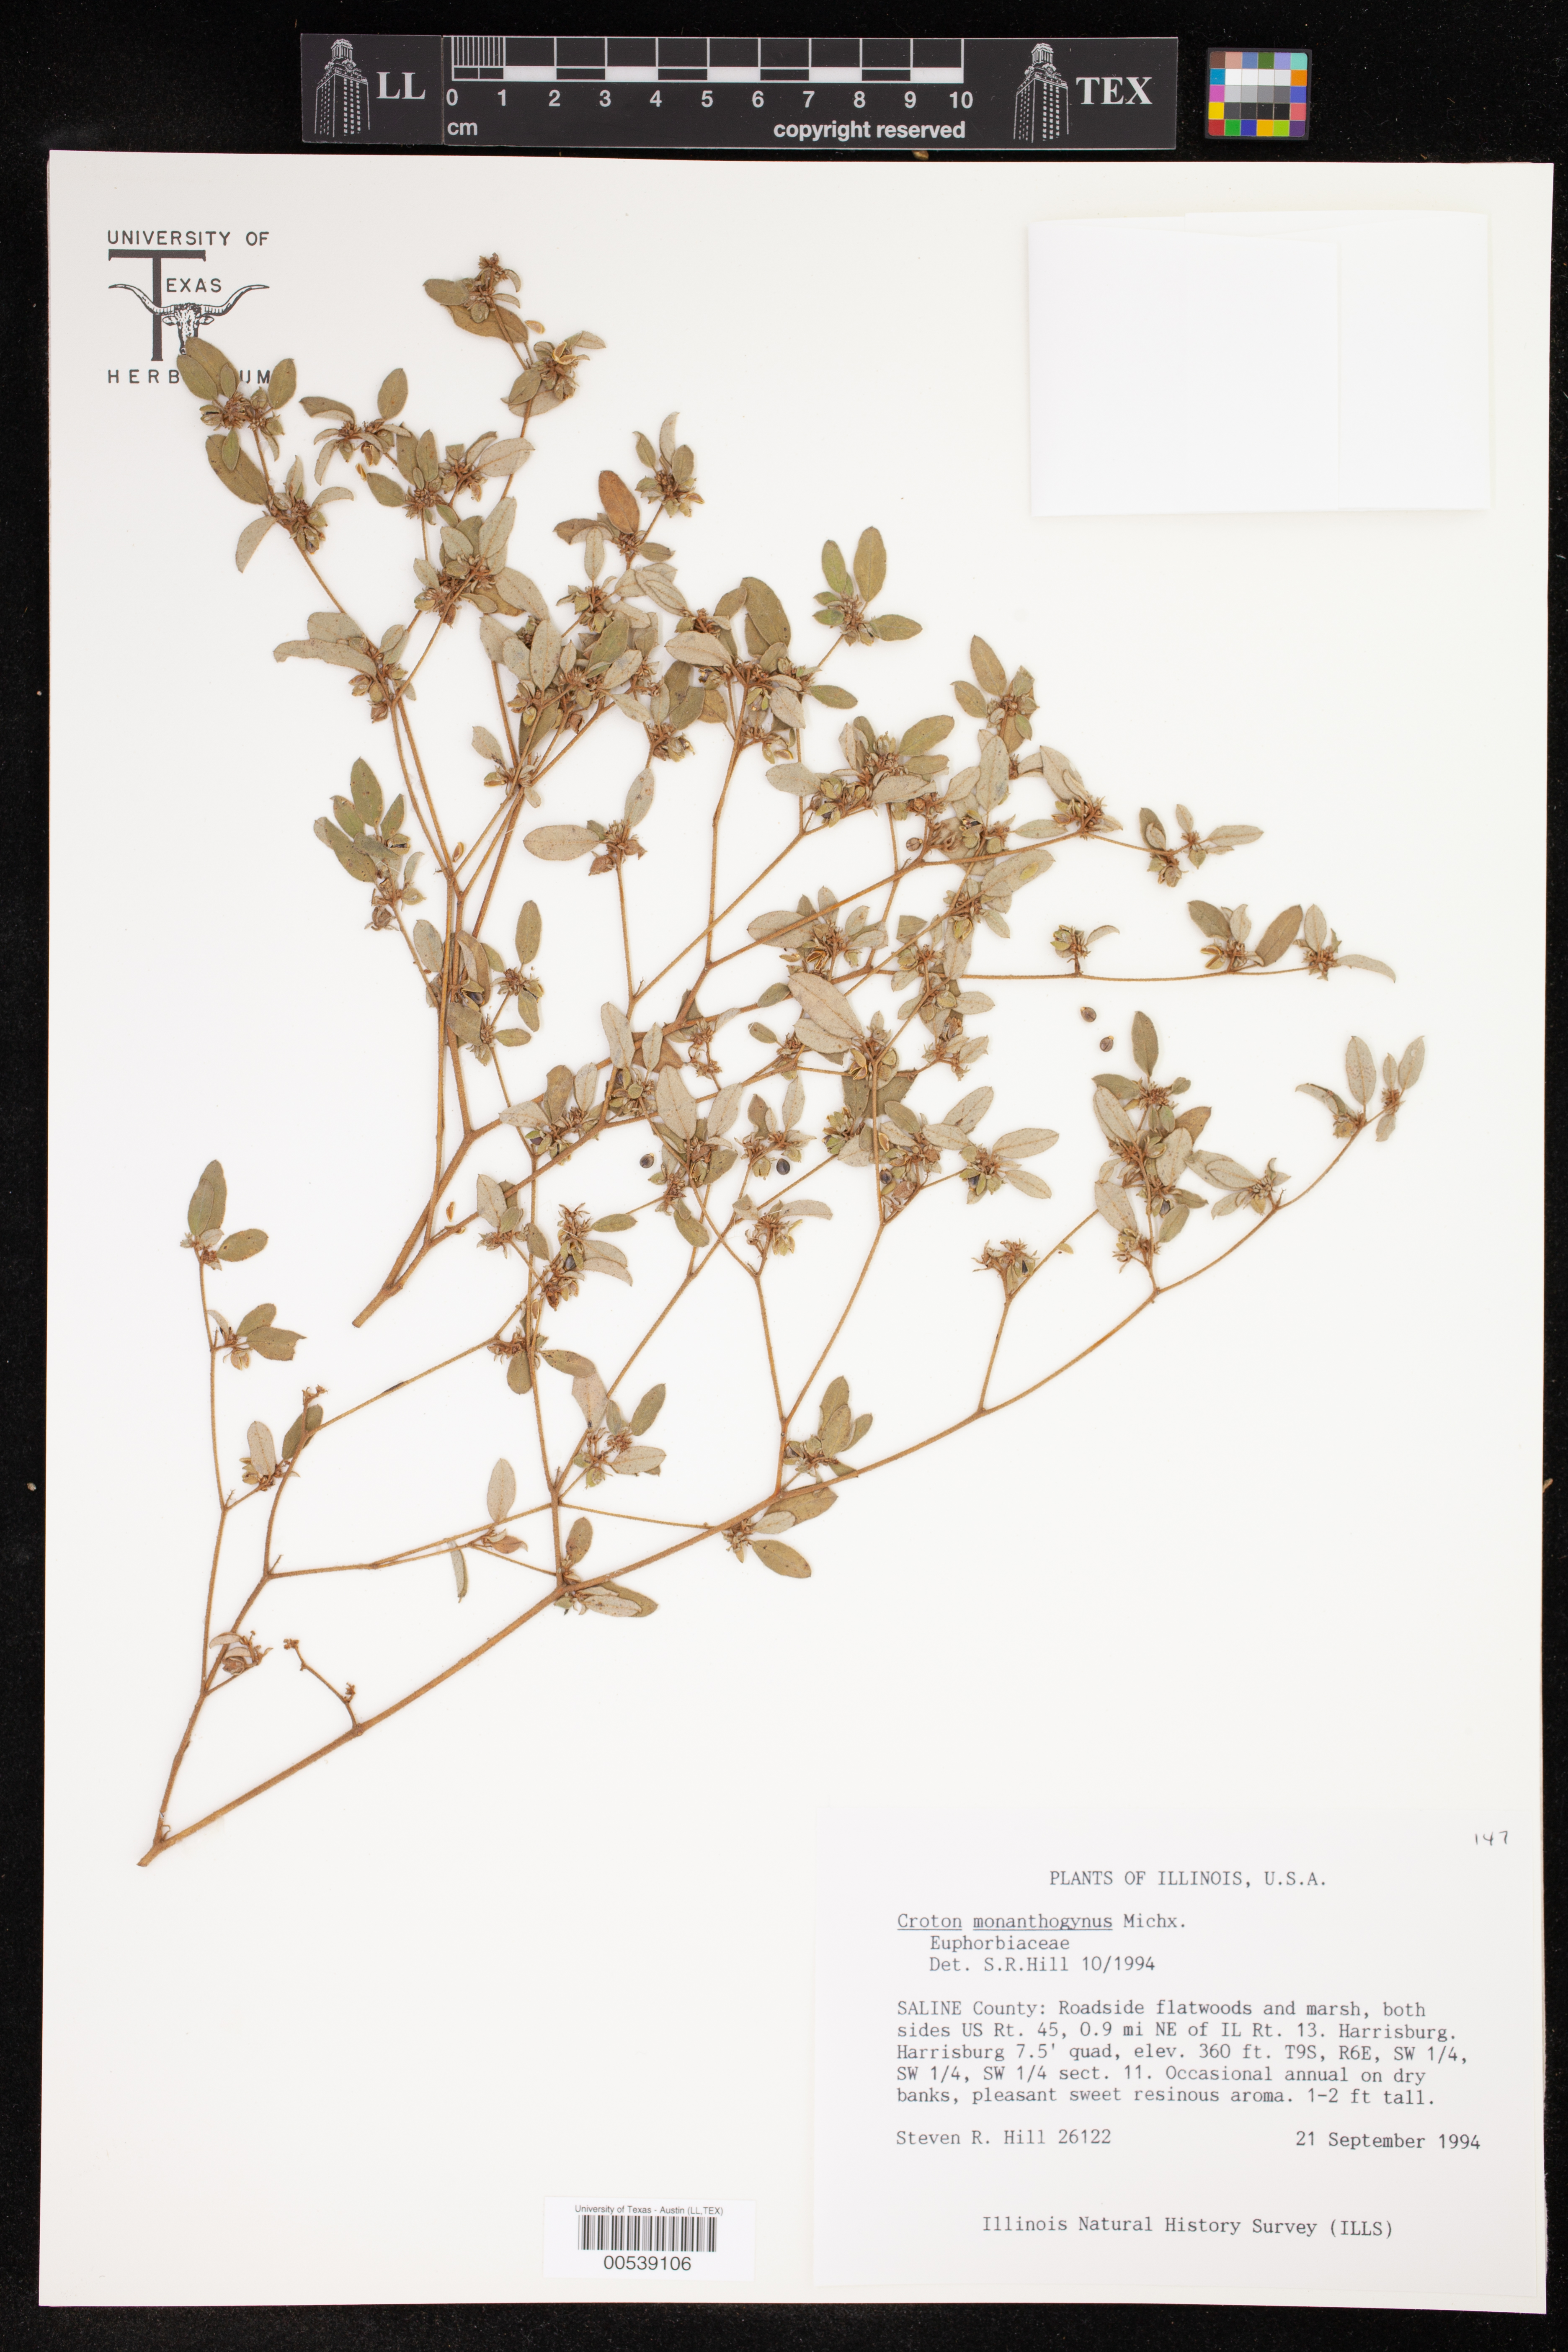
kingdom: Plantae
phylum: Tracheophyta
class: Magnoliopsida
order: Malpighiales
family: Euphorbiaceae
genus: Croton
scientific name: Croton monanthogynus
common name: One-seed croton
